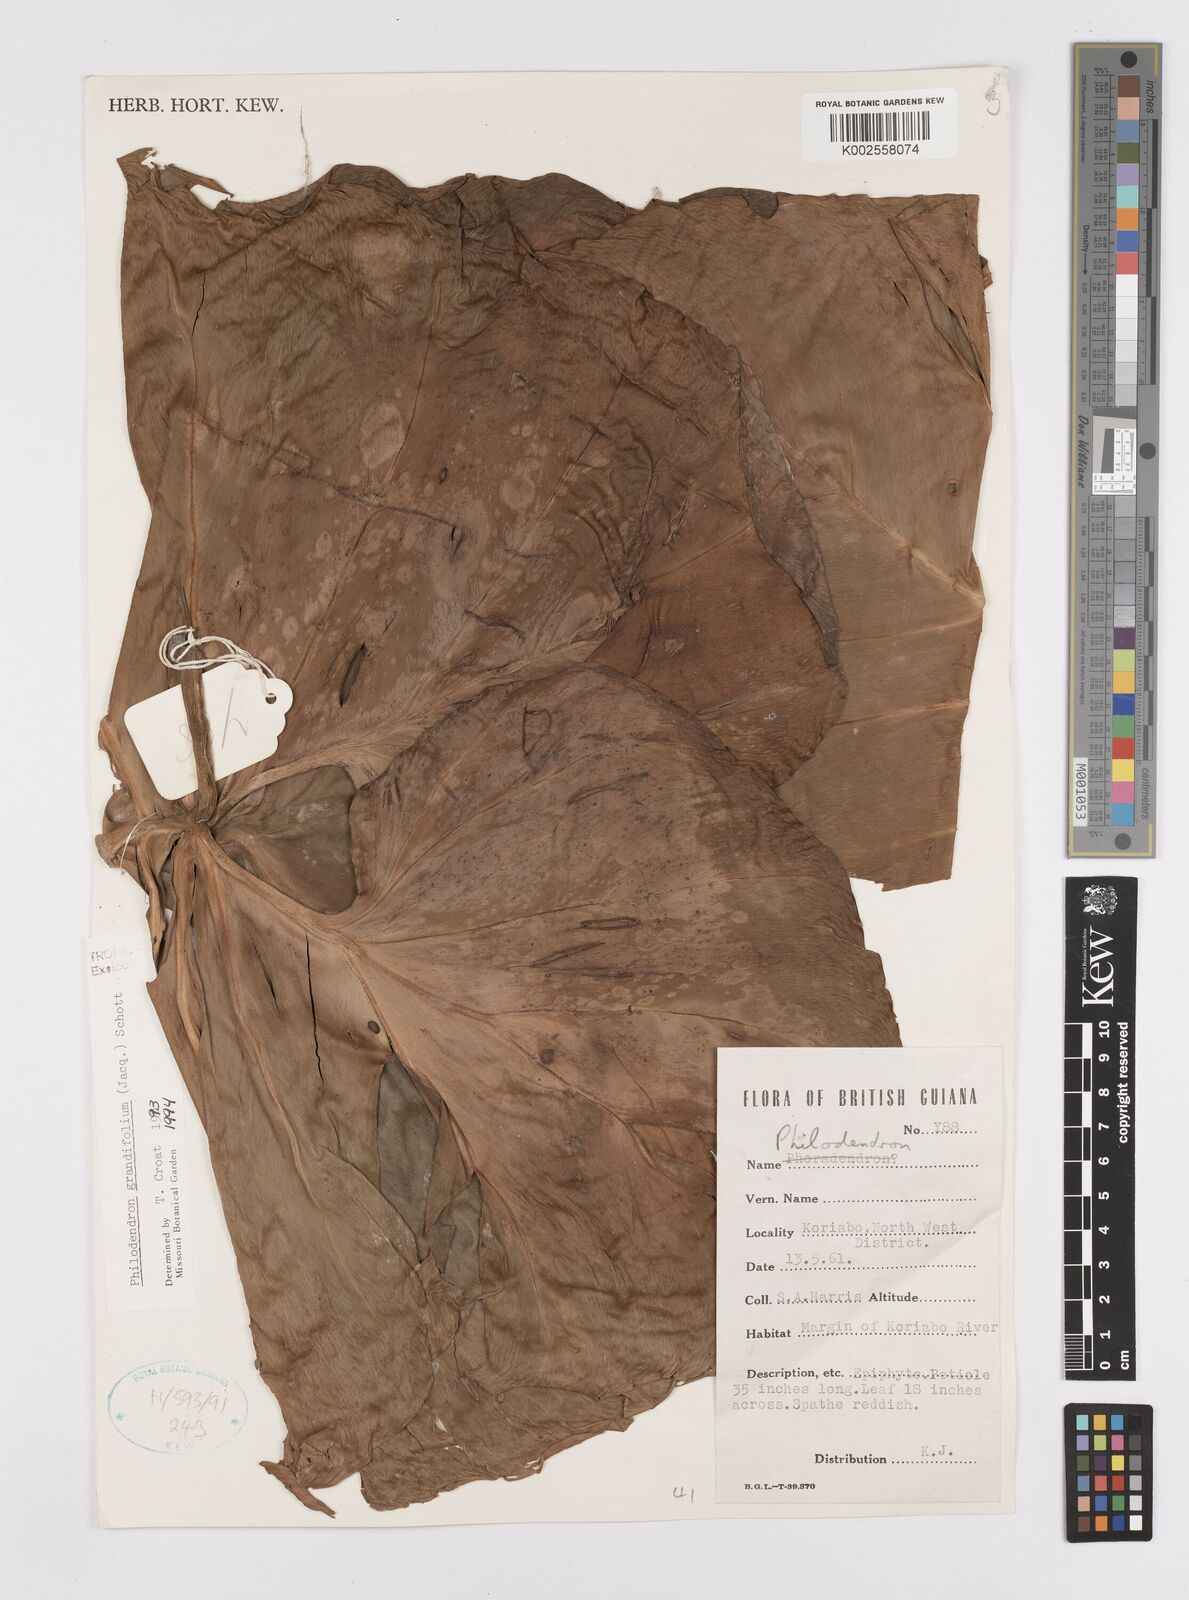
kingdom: Plantae
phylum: Tracheophyta
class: Liliopsida
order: Alismatales
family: Araceae
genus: Philodendron
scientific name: Philodendron grandifolium
